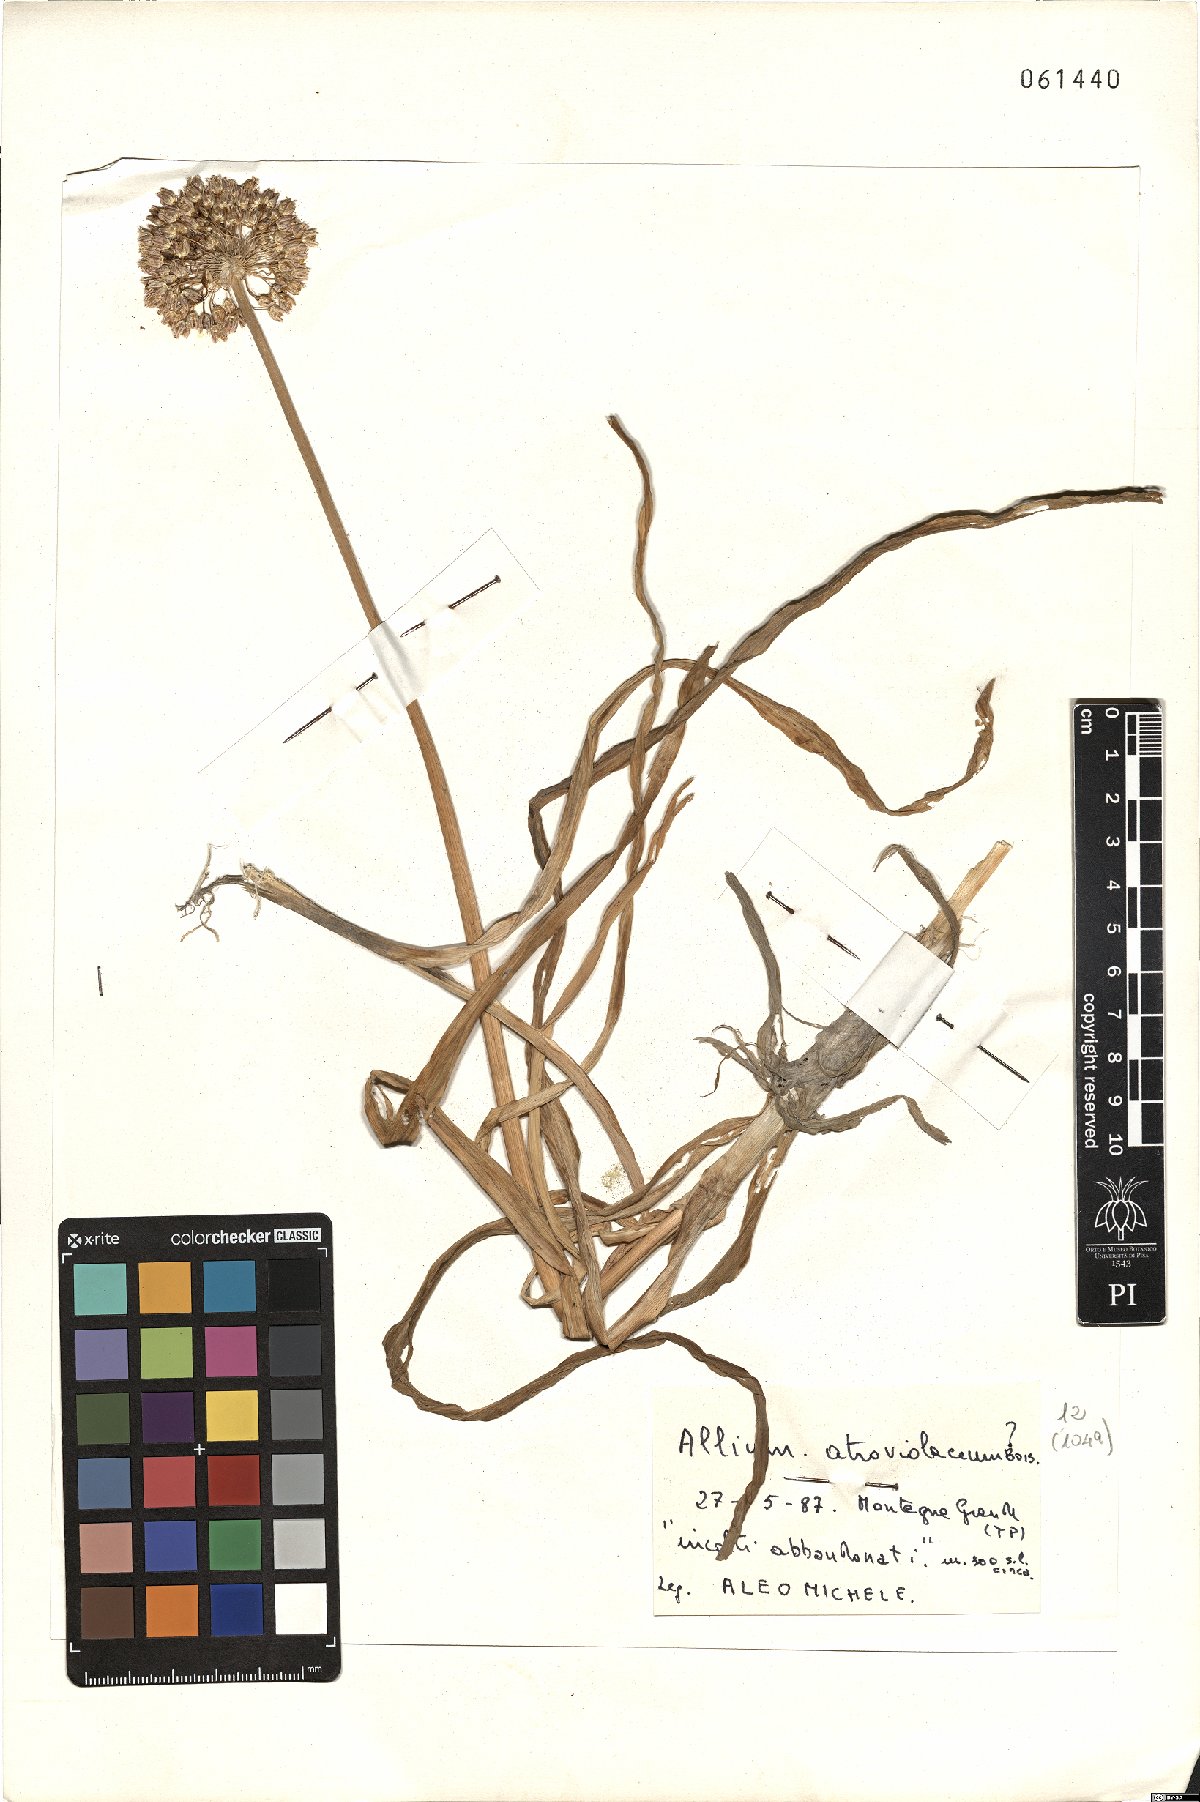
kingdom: Plantae
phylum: Tracheophyta
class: Liliopsida
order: Asparagales
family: Amaryllidaceae
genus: Allium
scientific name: Allium atroviolaceum
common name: Broadleaf wild leek
